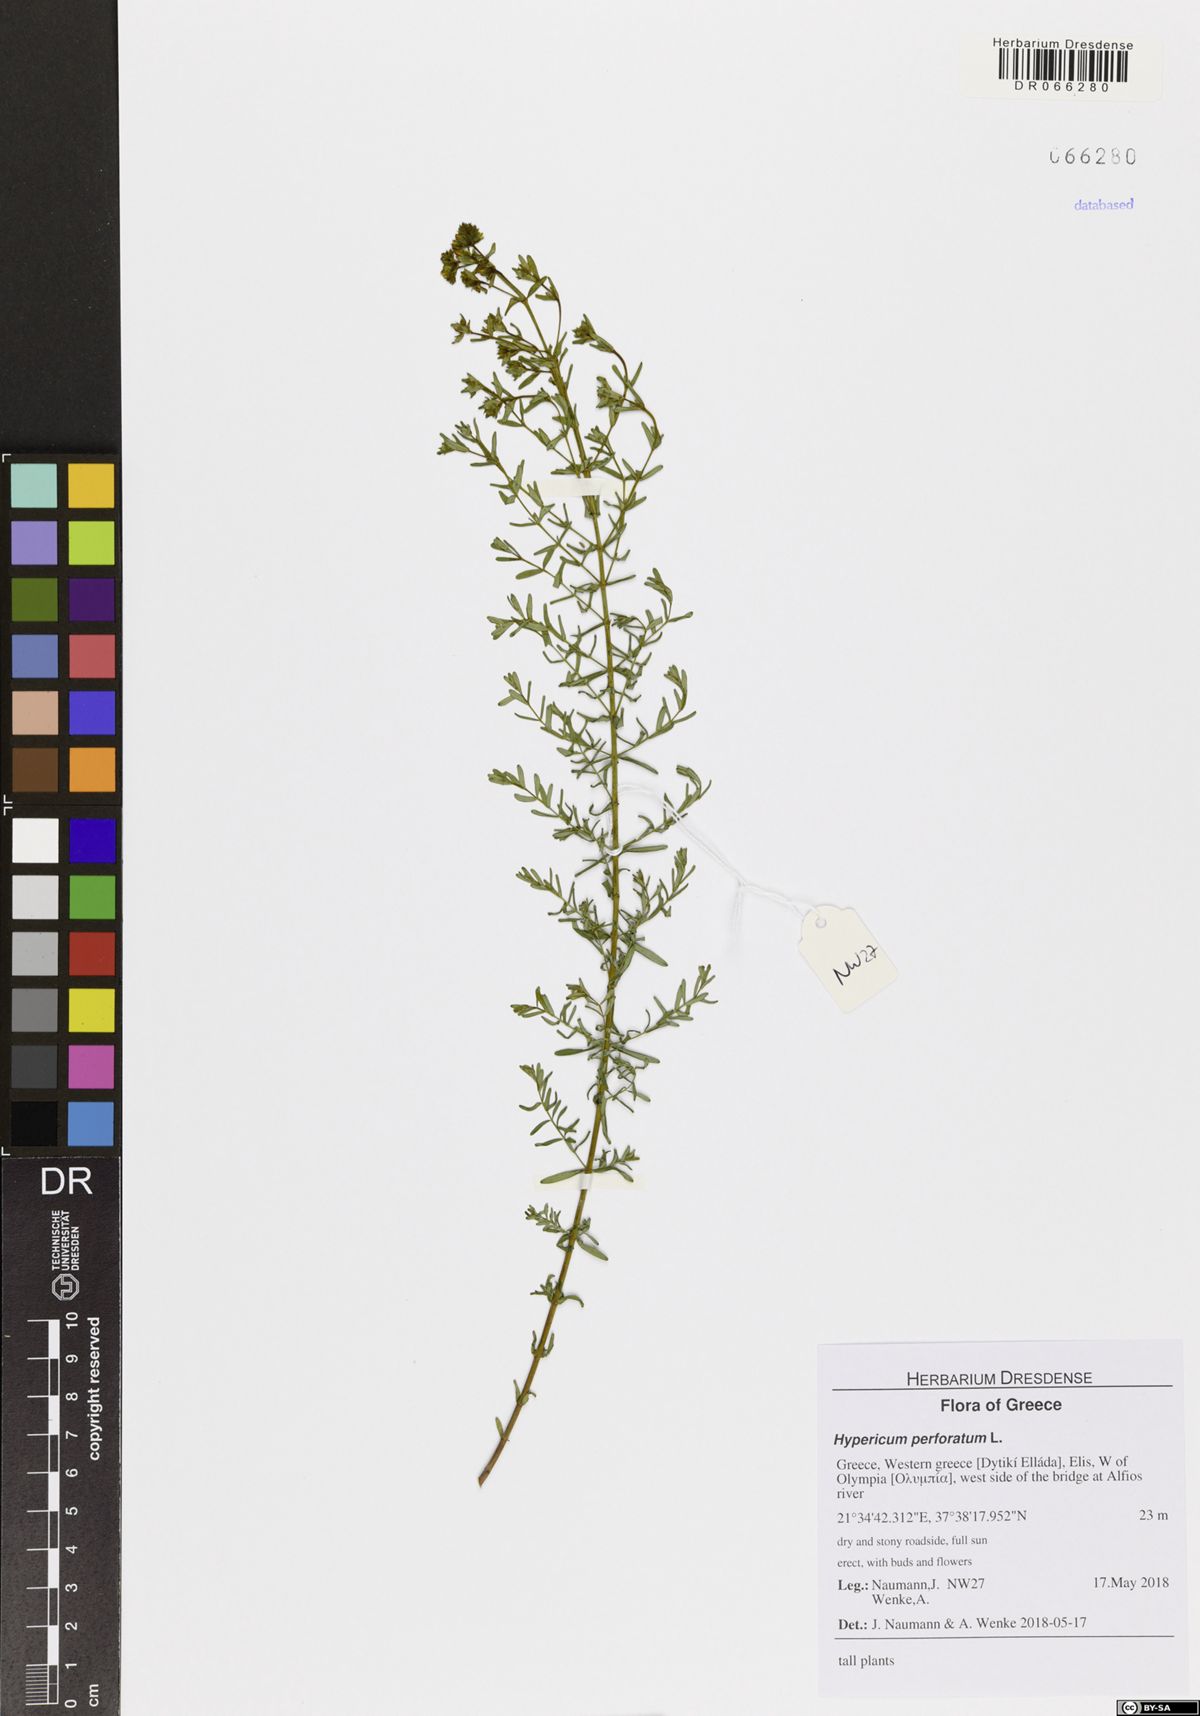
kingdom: Plantae
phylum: Tracheophyta
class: Magnoliopsida
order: Malpighiales
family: Hypericaceae
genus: Hypericum
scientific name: Hypericum perforatum
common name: Common st. johnswort
